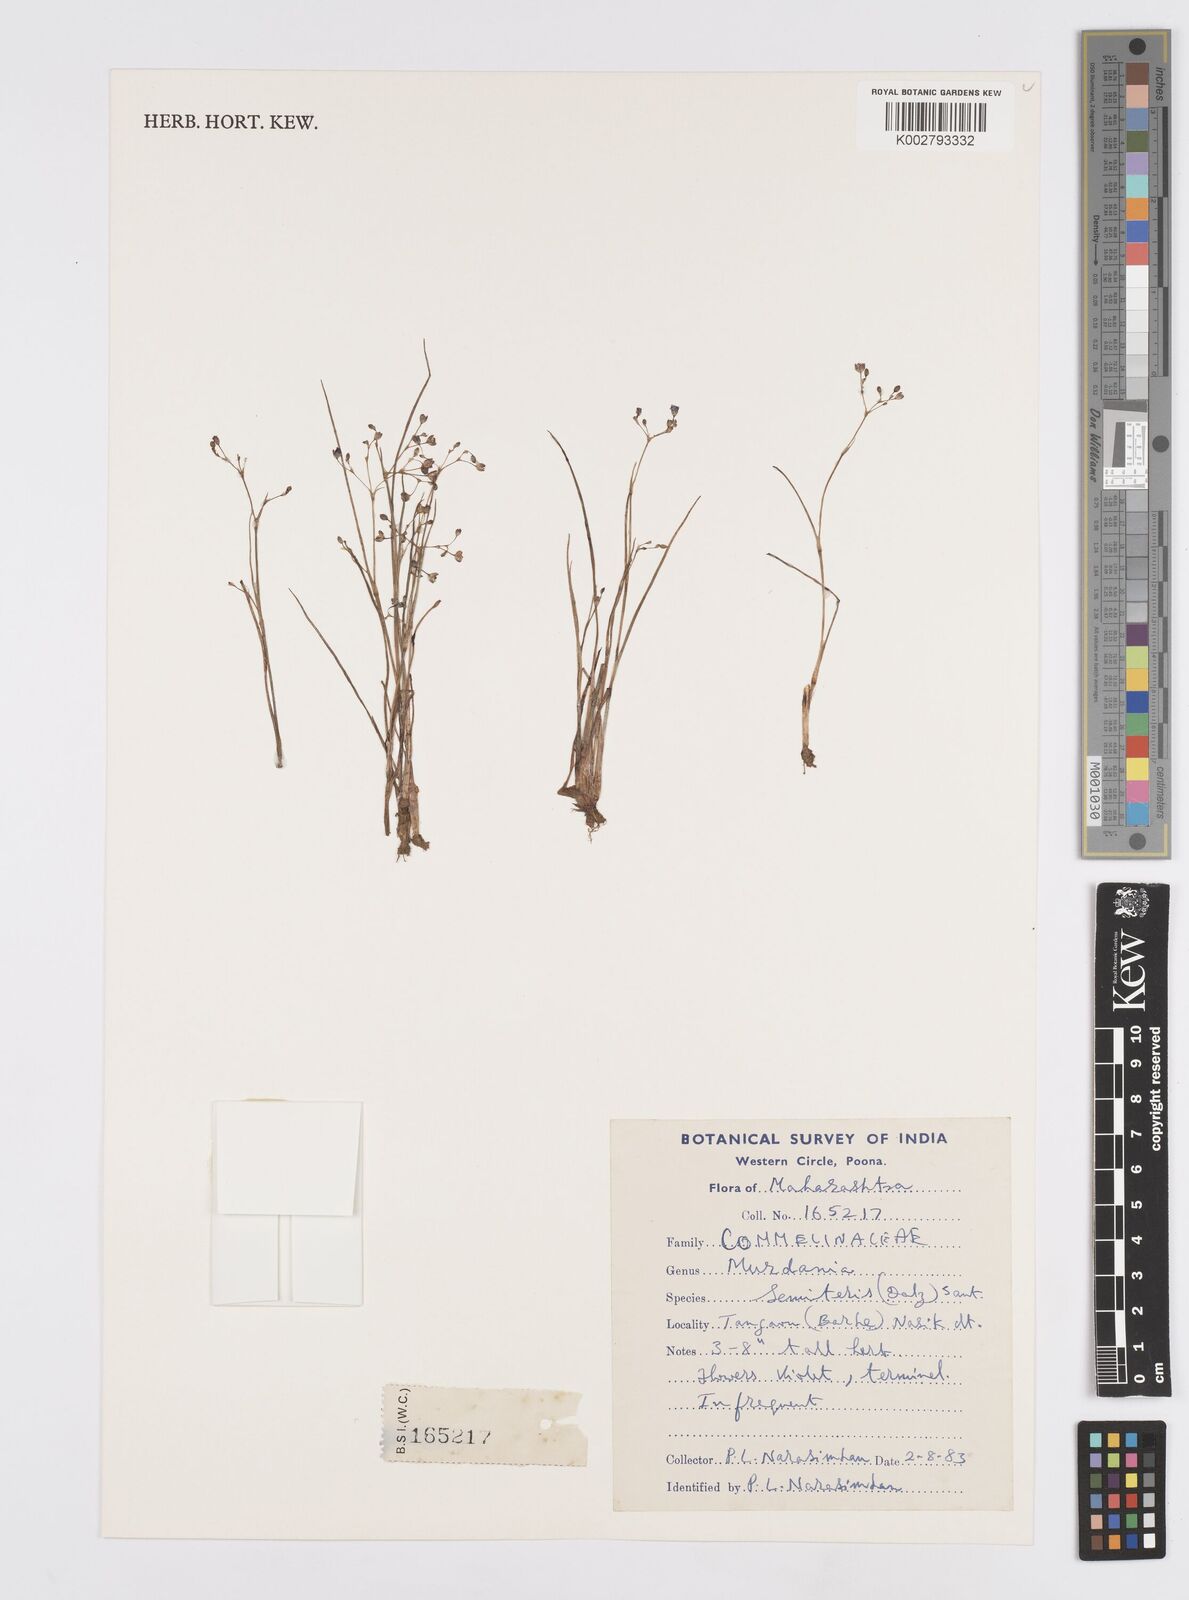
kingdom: Plantae
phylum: Tracheophyta
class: Liliopsida
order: Commelinales
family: Commelinaceae
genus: Murdannia
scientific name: Murdannia semiteres
